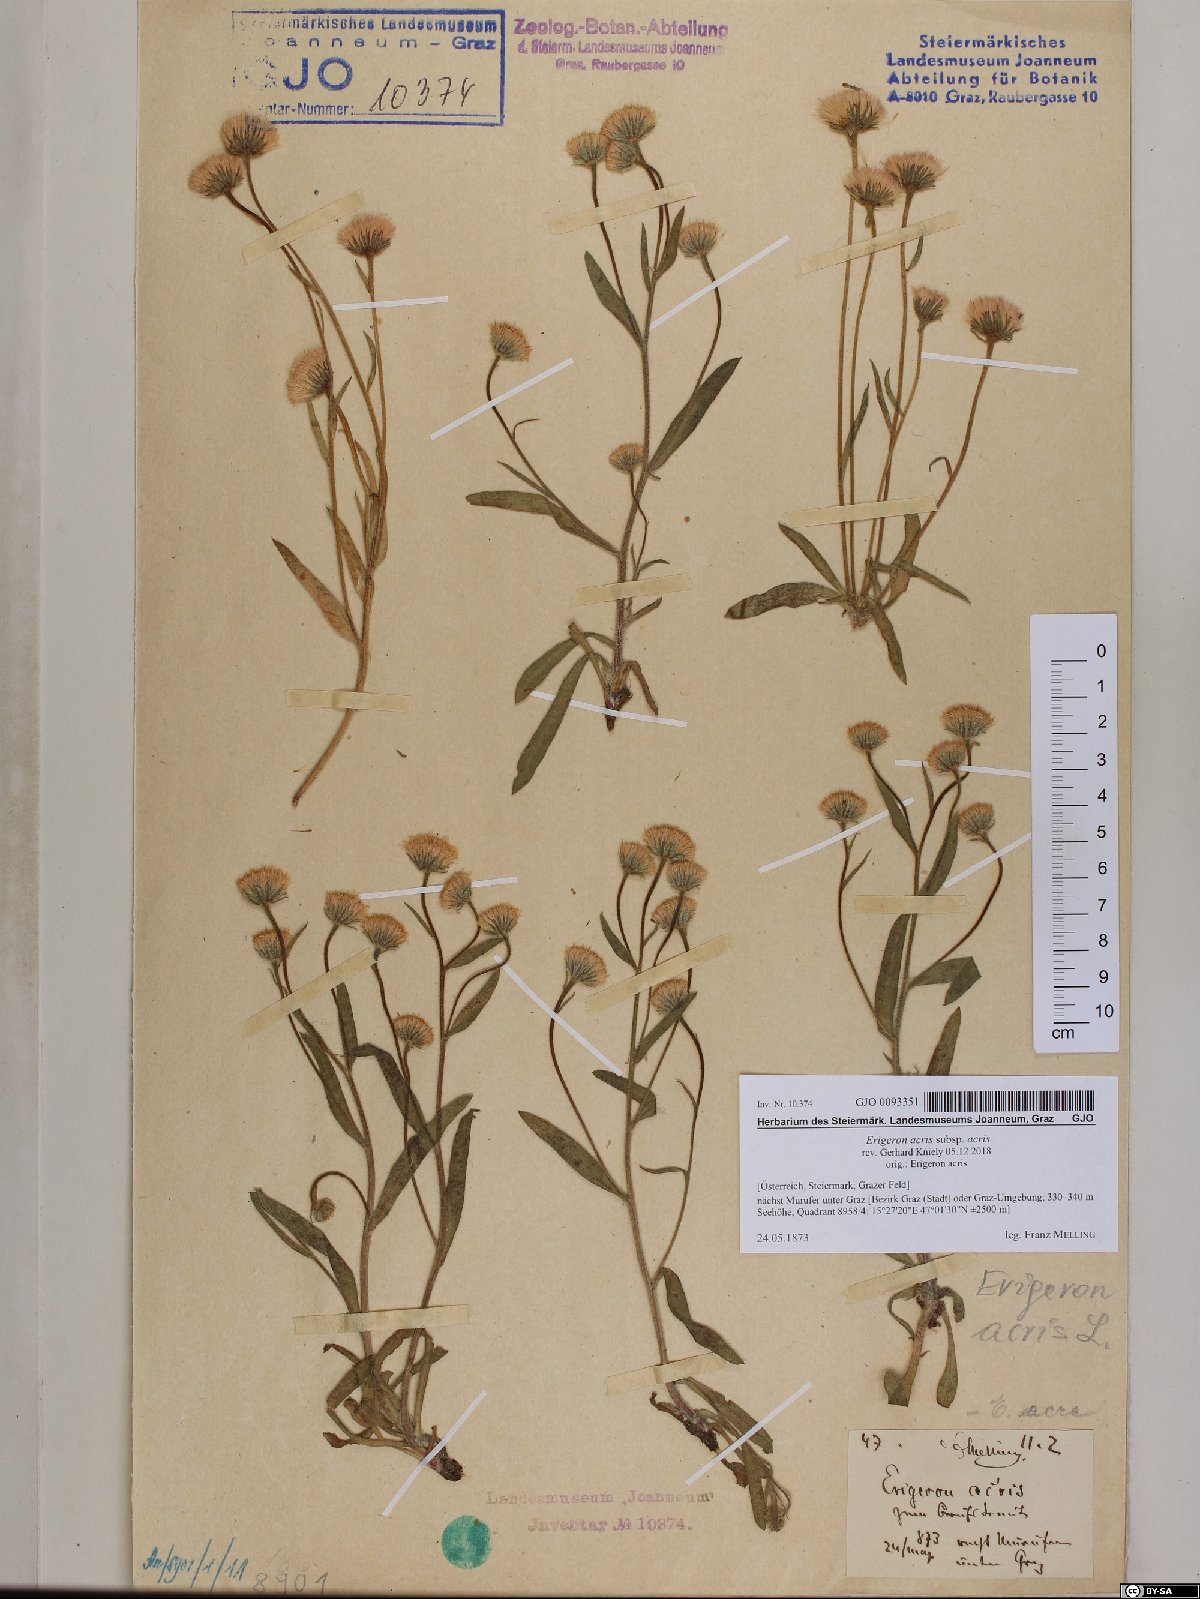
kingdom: Plantae
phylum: Tracheophyta
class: Magnoliopsida
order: Asterales
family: Asteraceae
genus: Erigeron
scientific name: Erigeron acris
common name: Blue fleabane
